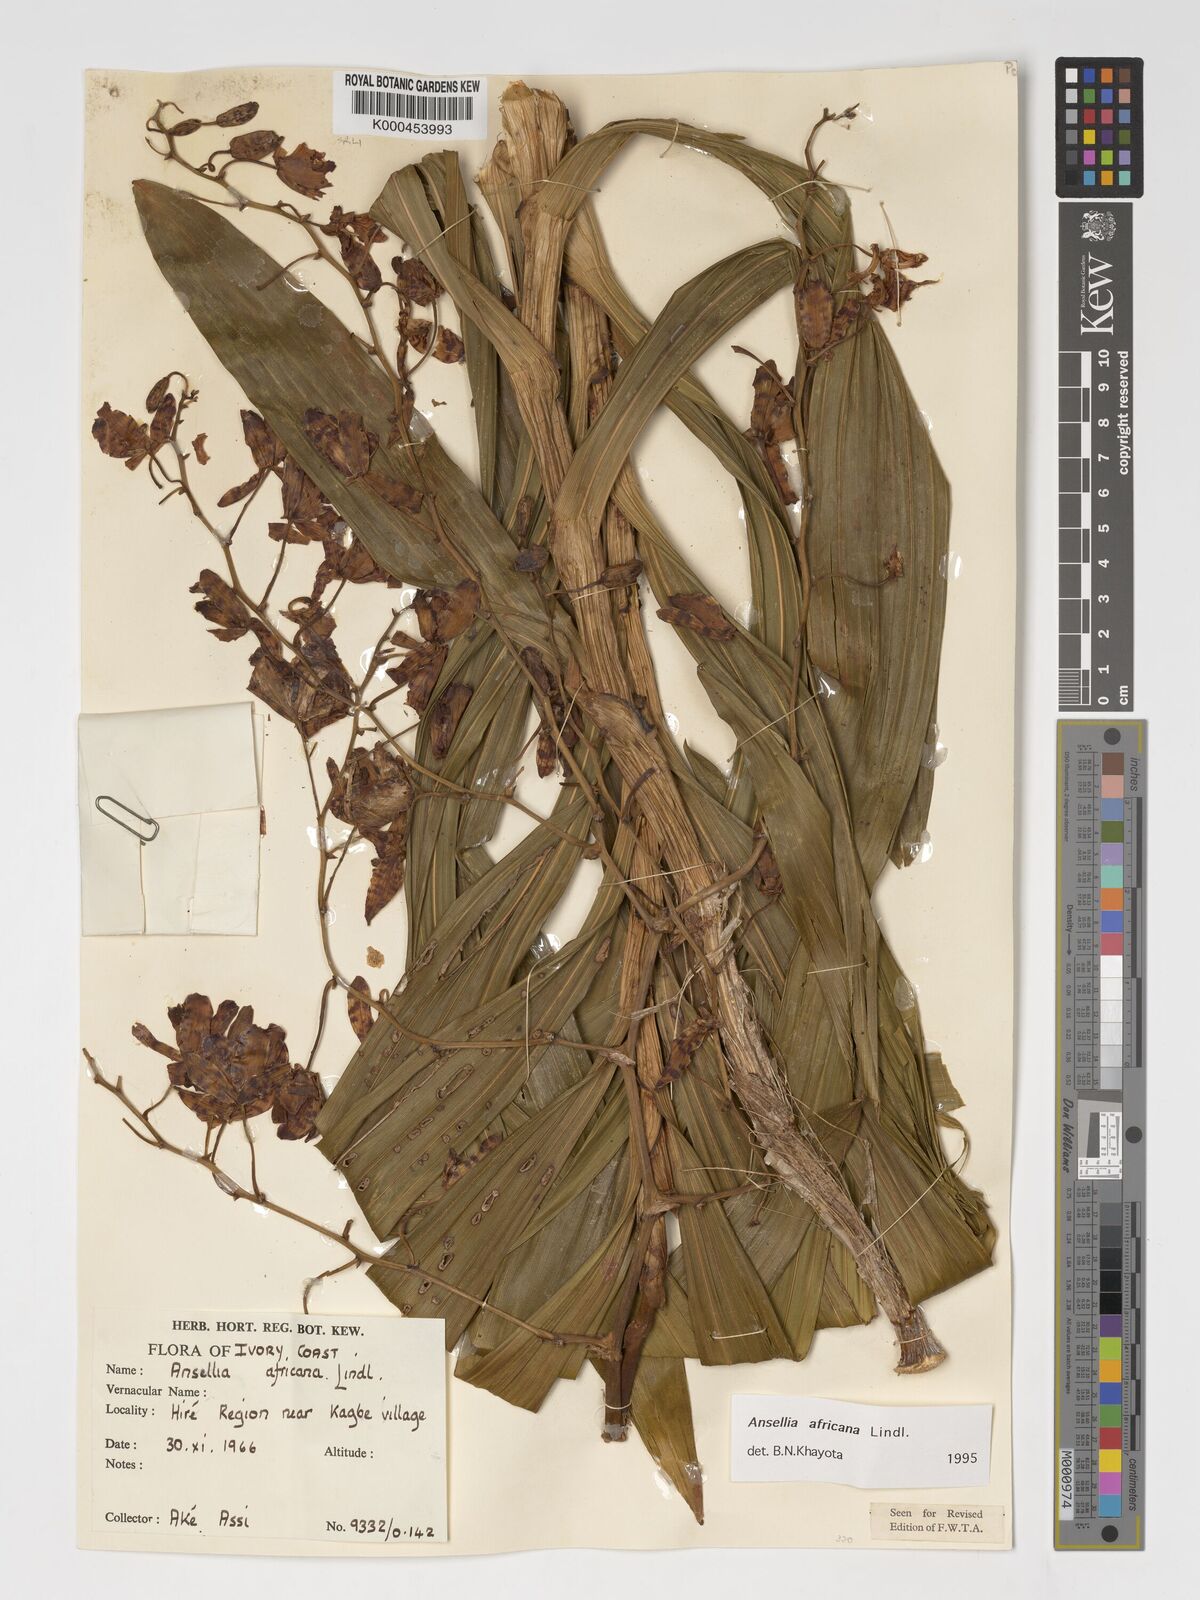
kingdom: Plantae
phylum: Tracheophyta
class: Liliopsida
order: Asparagales
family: Orchidaceae
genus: Ansellia
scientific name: Ansellia africana
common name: African ansellia
